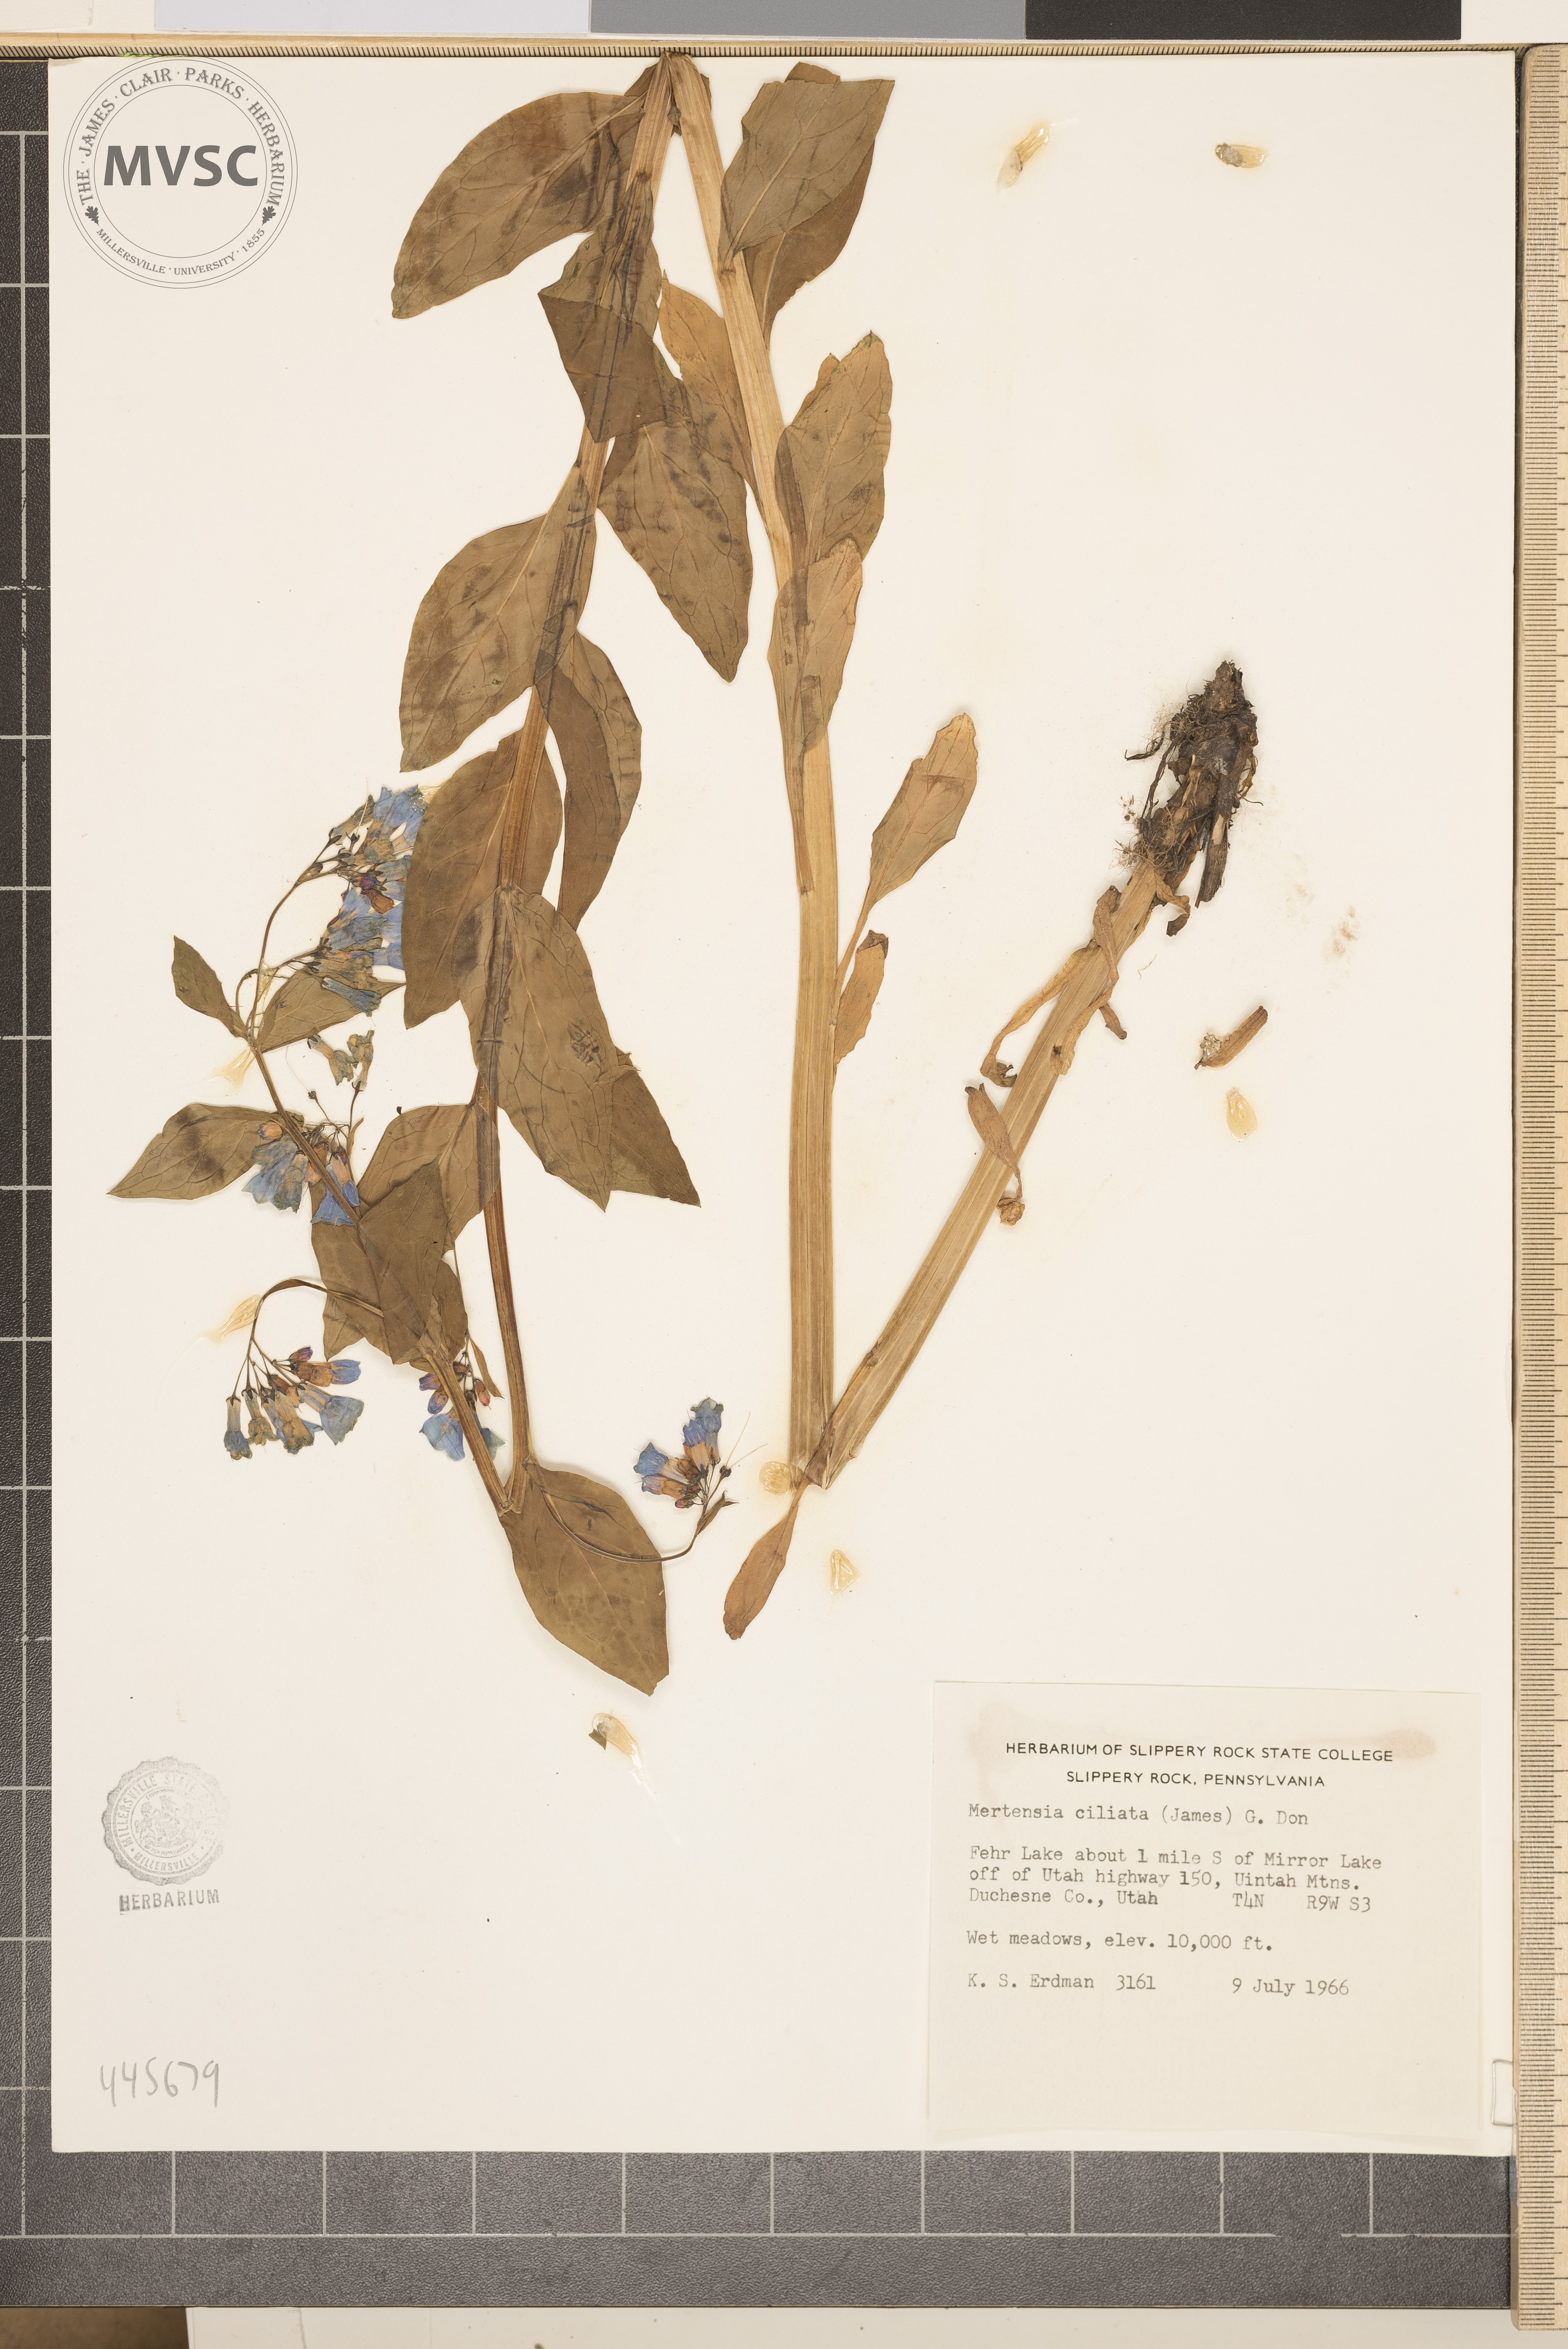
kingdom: Plantae
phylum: Tracheophyta
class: Magnoliopsida
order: Boraginales
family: Boraginaceae
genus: Mertensia
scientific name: Mertensia ciliata
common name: Tall chiming-bells
